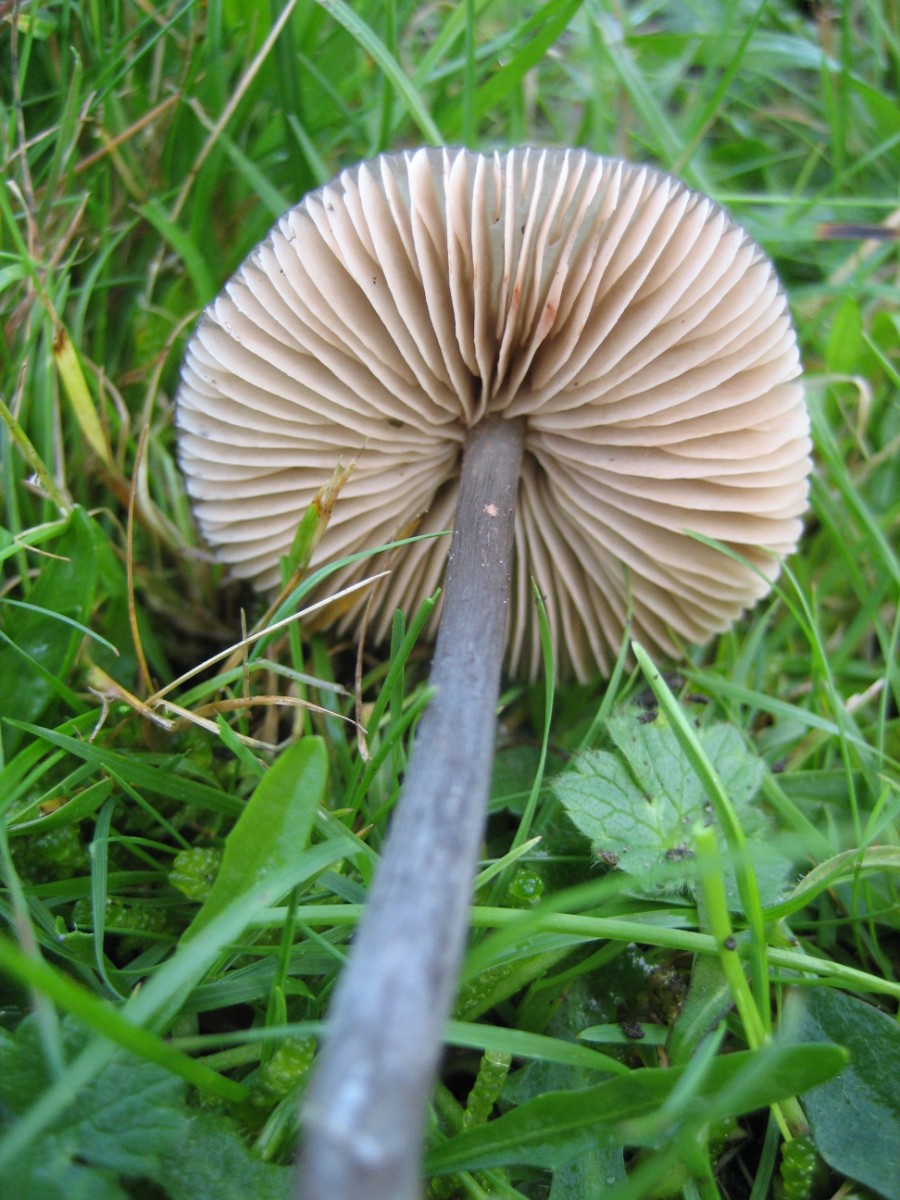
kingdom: Fungi
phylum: Basidiomycota
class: Agaricomycetes
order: Agaricales
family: Entolomataceae
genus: Entoloma
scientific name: Entoloma
